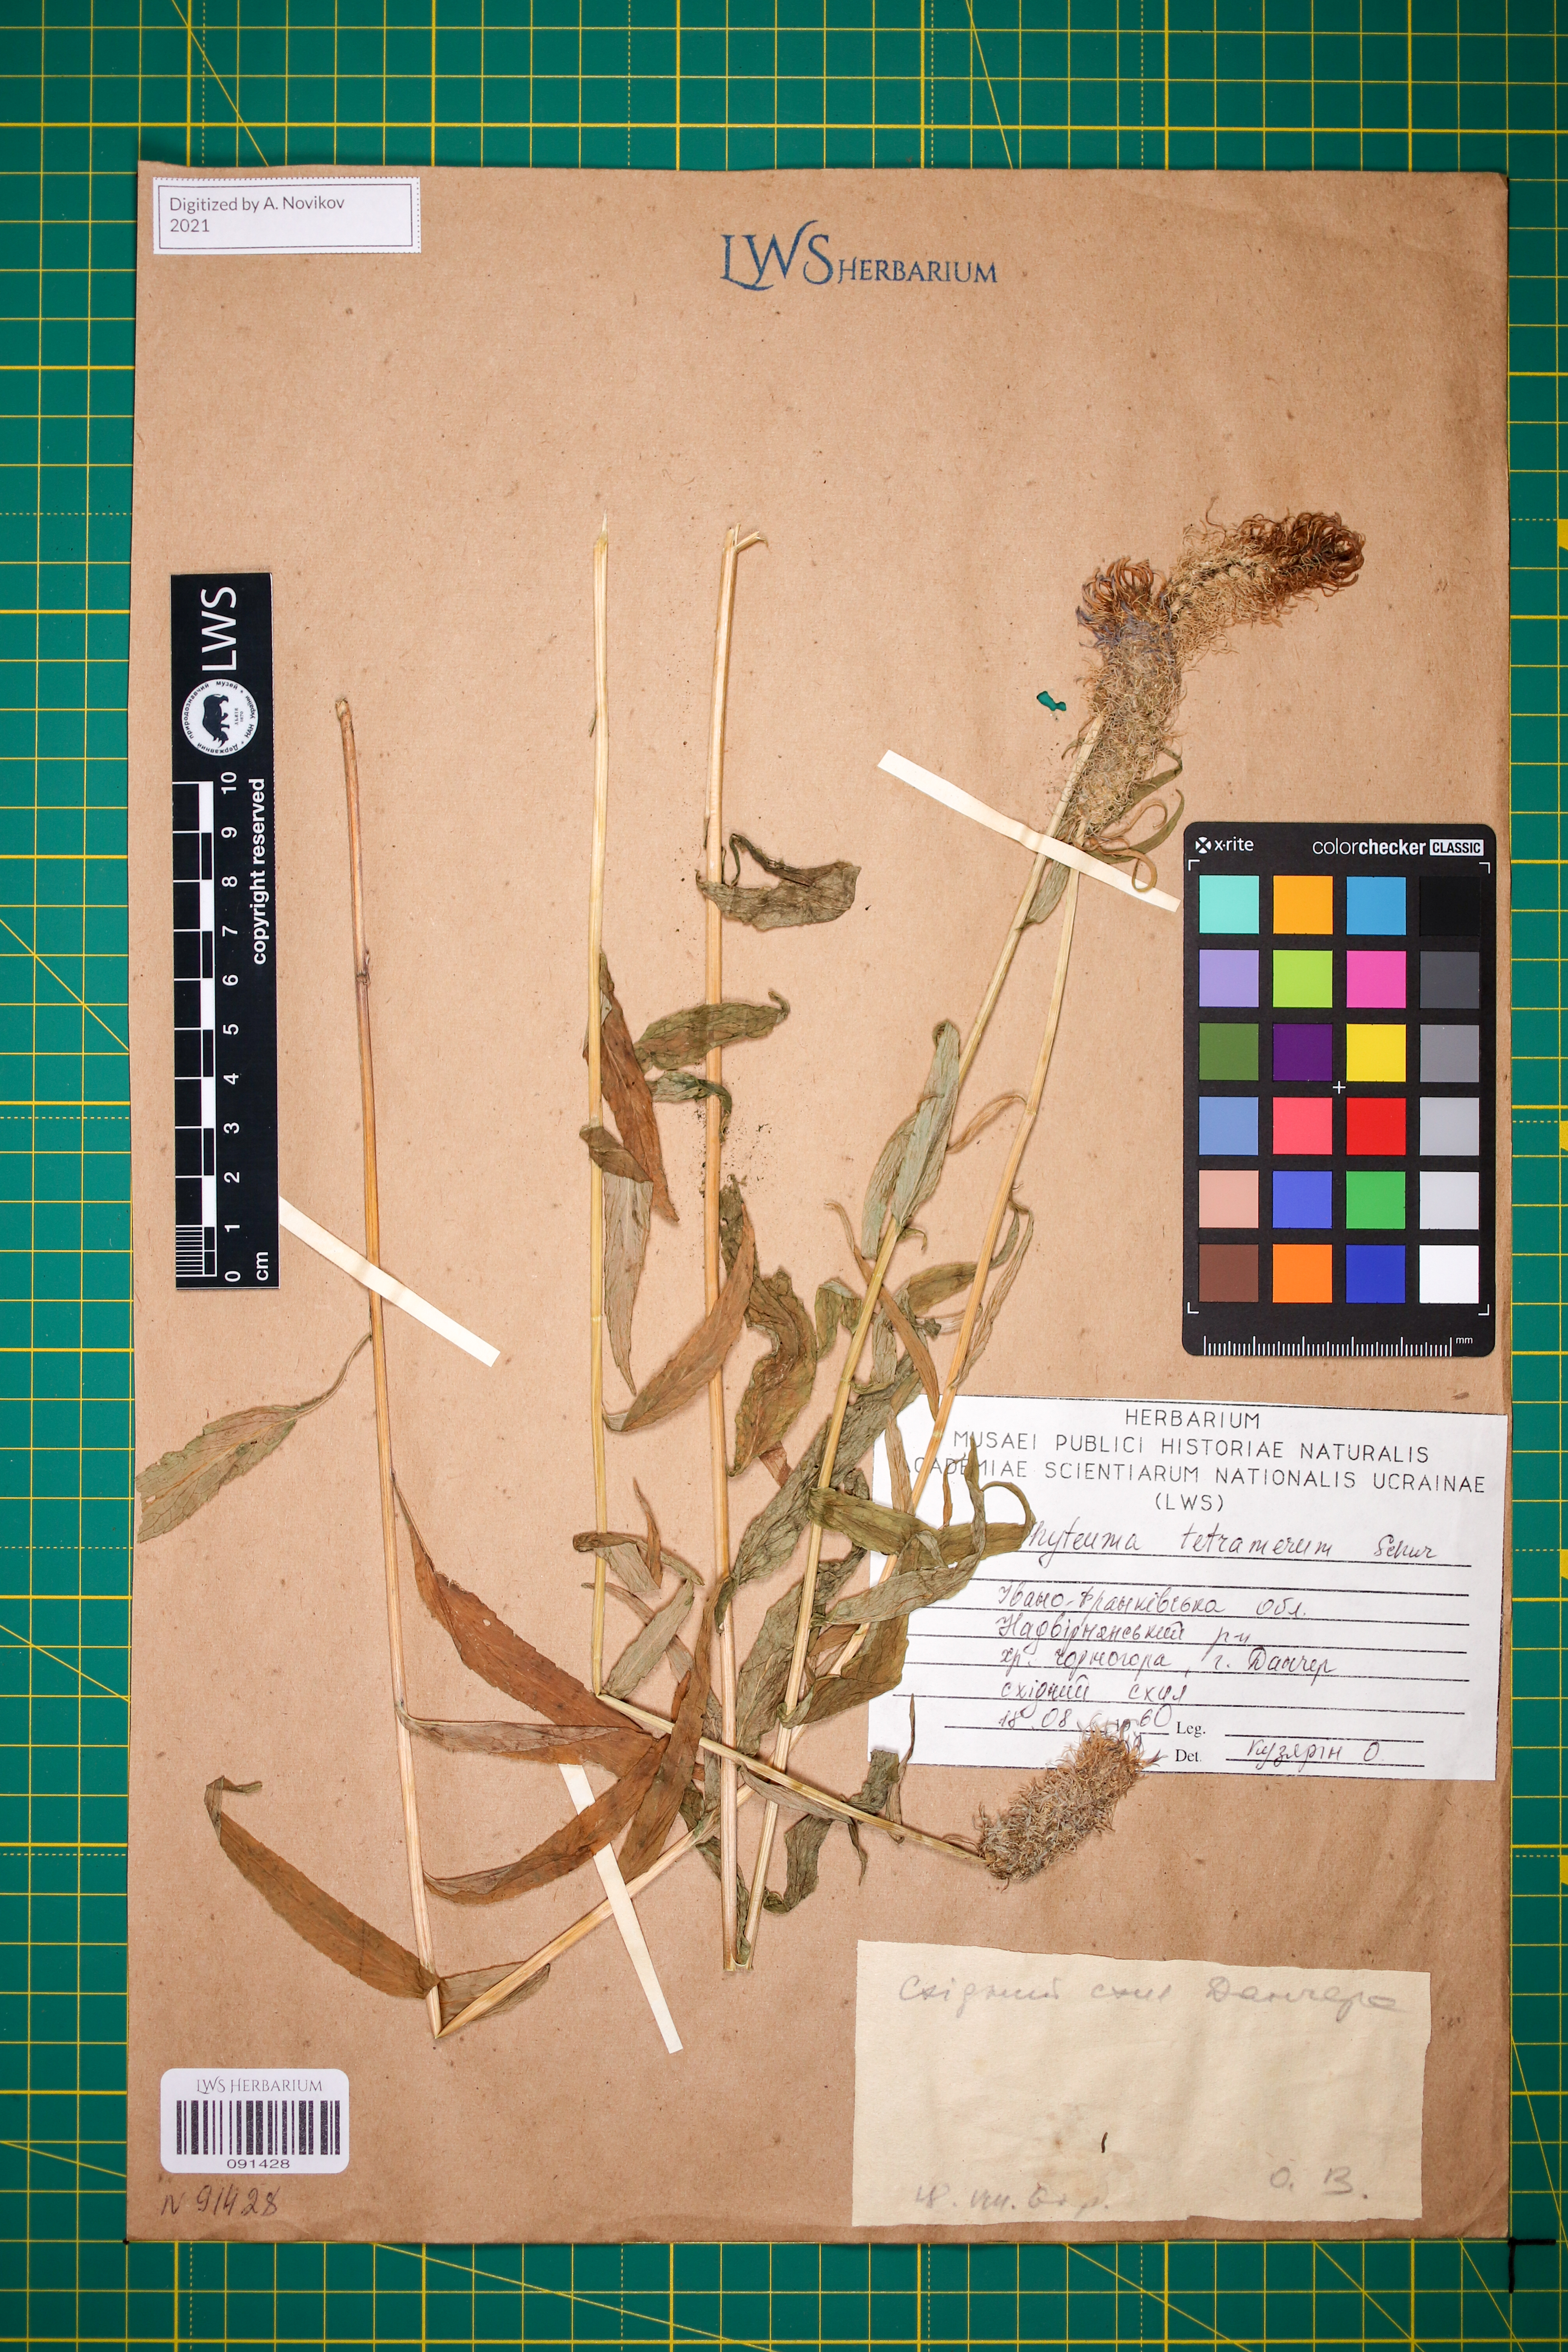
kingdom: Plantae
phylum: Tracheophyta
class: Magnoliopsida
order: Asterales
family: Campanulaceae
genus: Phyteuma
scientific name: Phyteuma tetramerum
